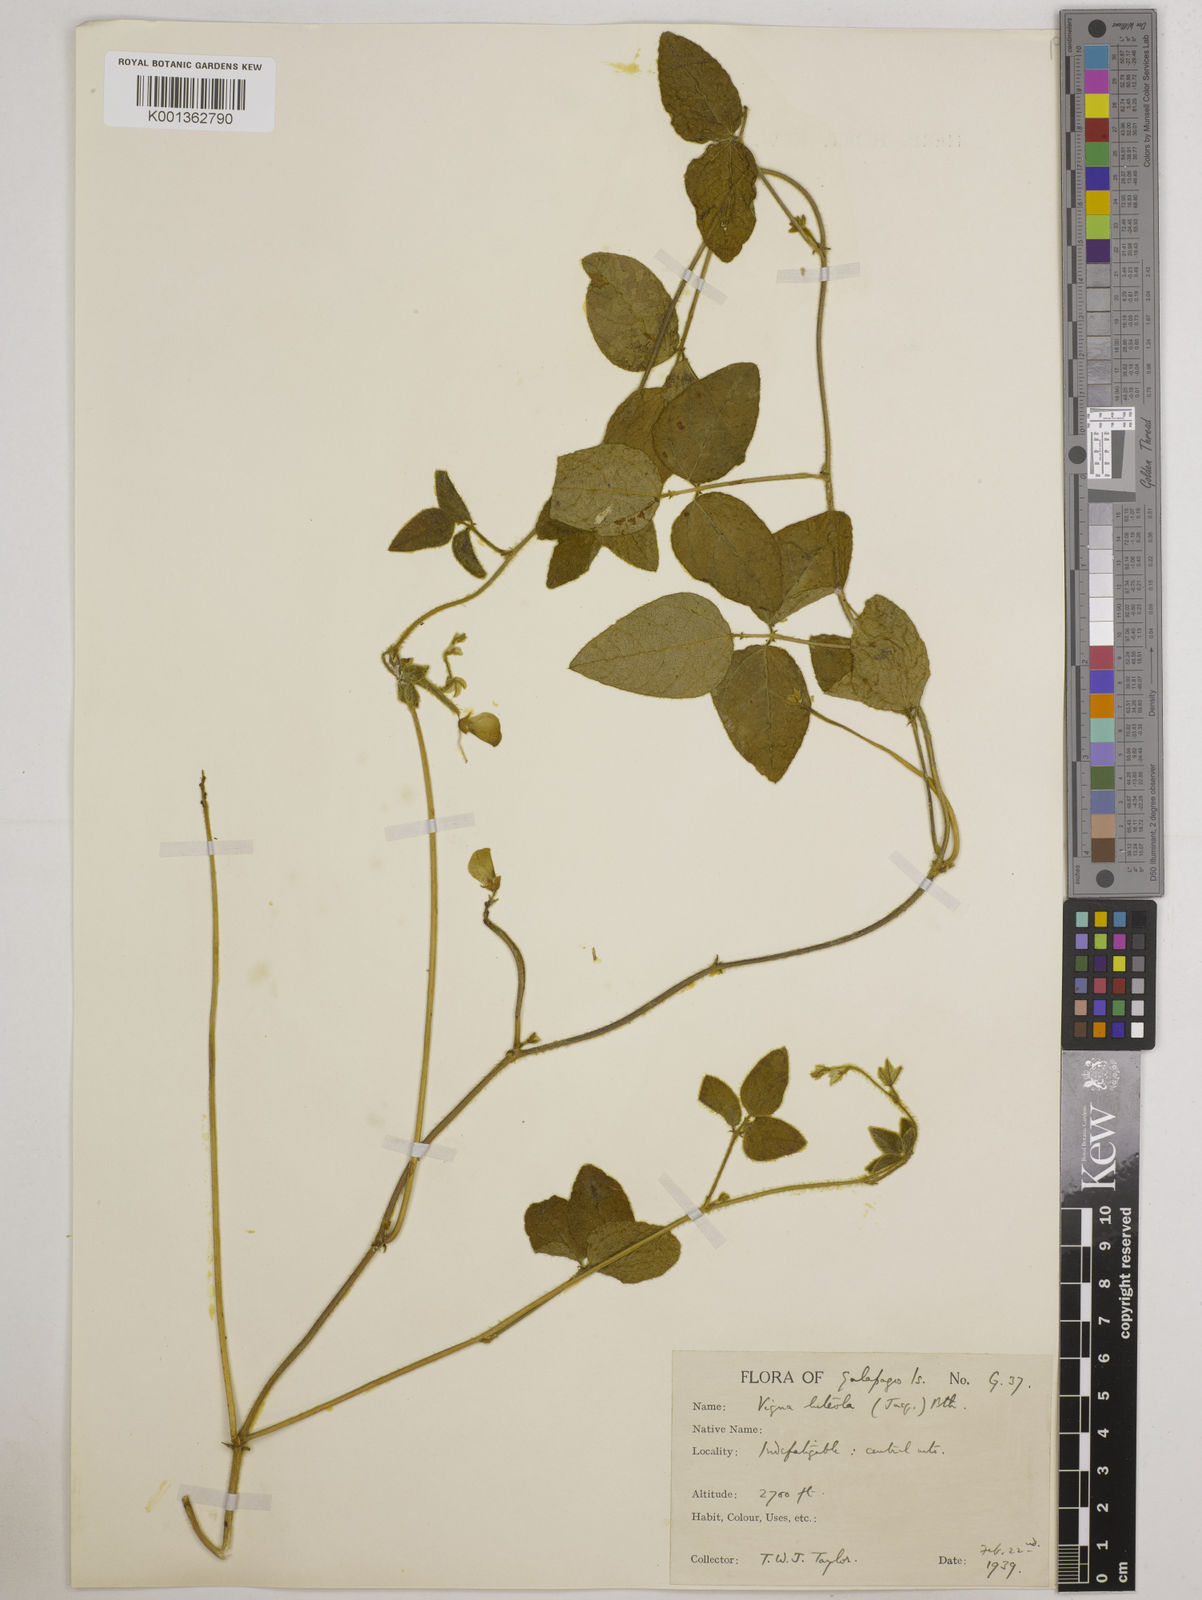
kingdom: Plantae
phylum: Tracheophyta
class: Magnoliopsida
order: Fabales
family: Fabaceae
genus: Vigna
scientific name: Vigna luteola
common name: Hairypod cowpea
